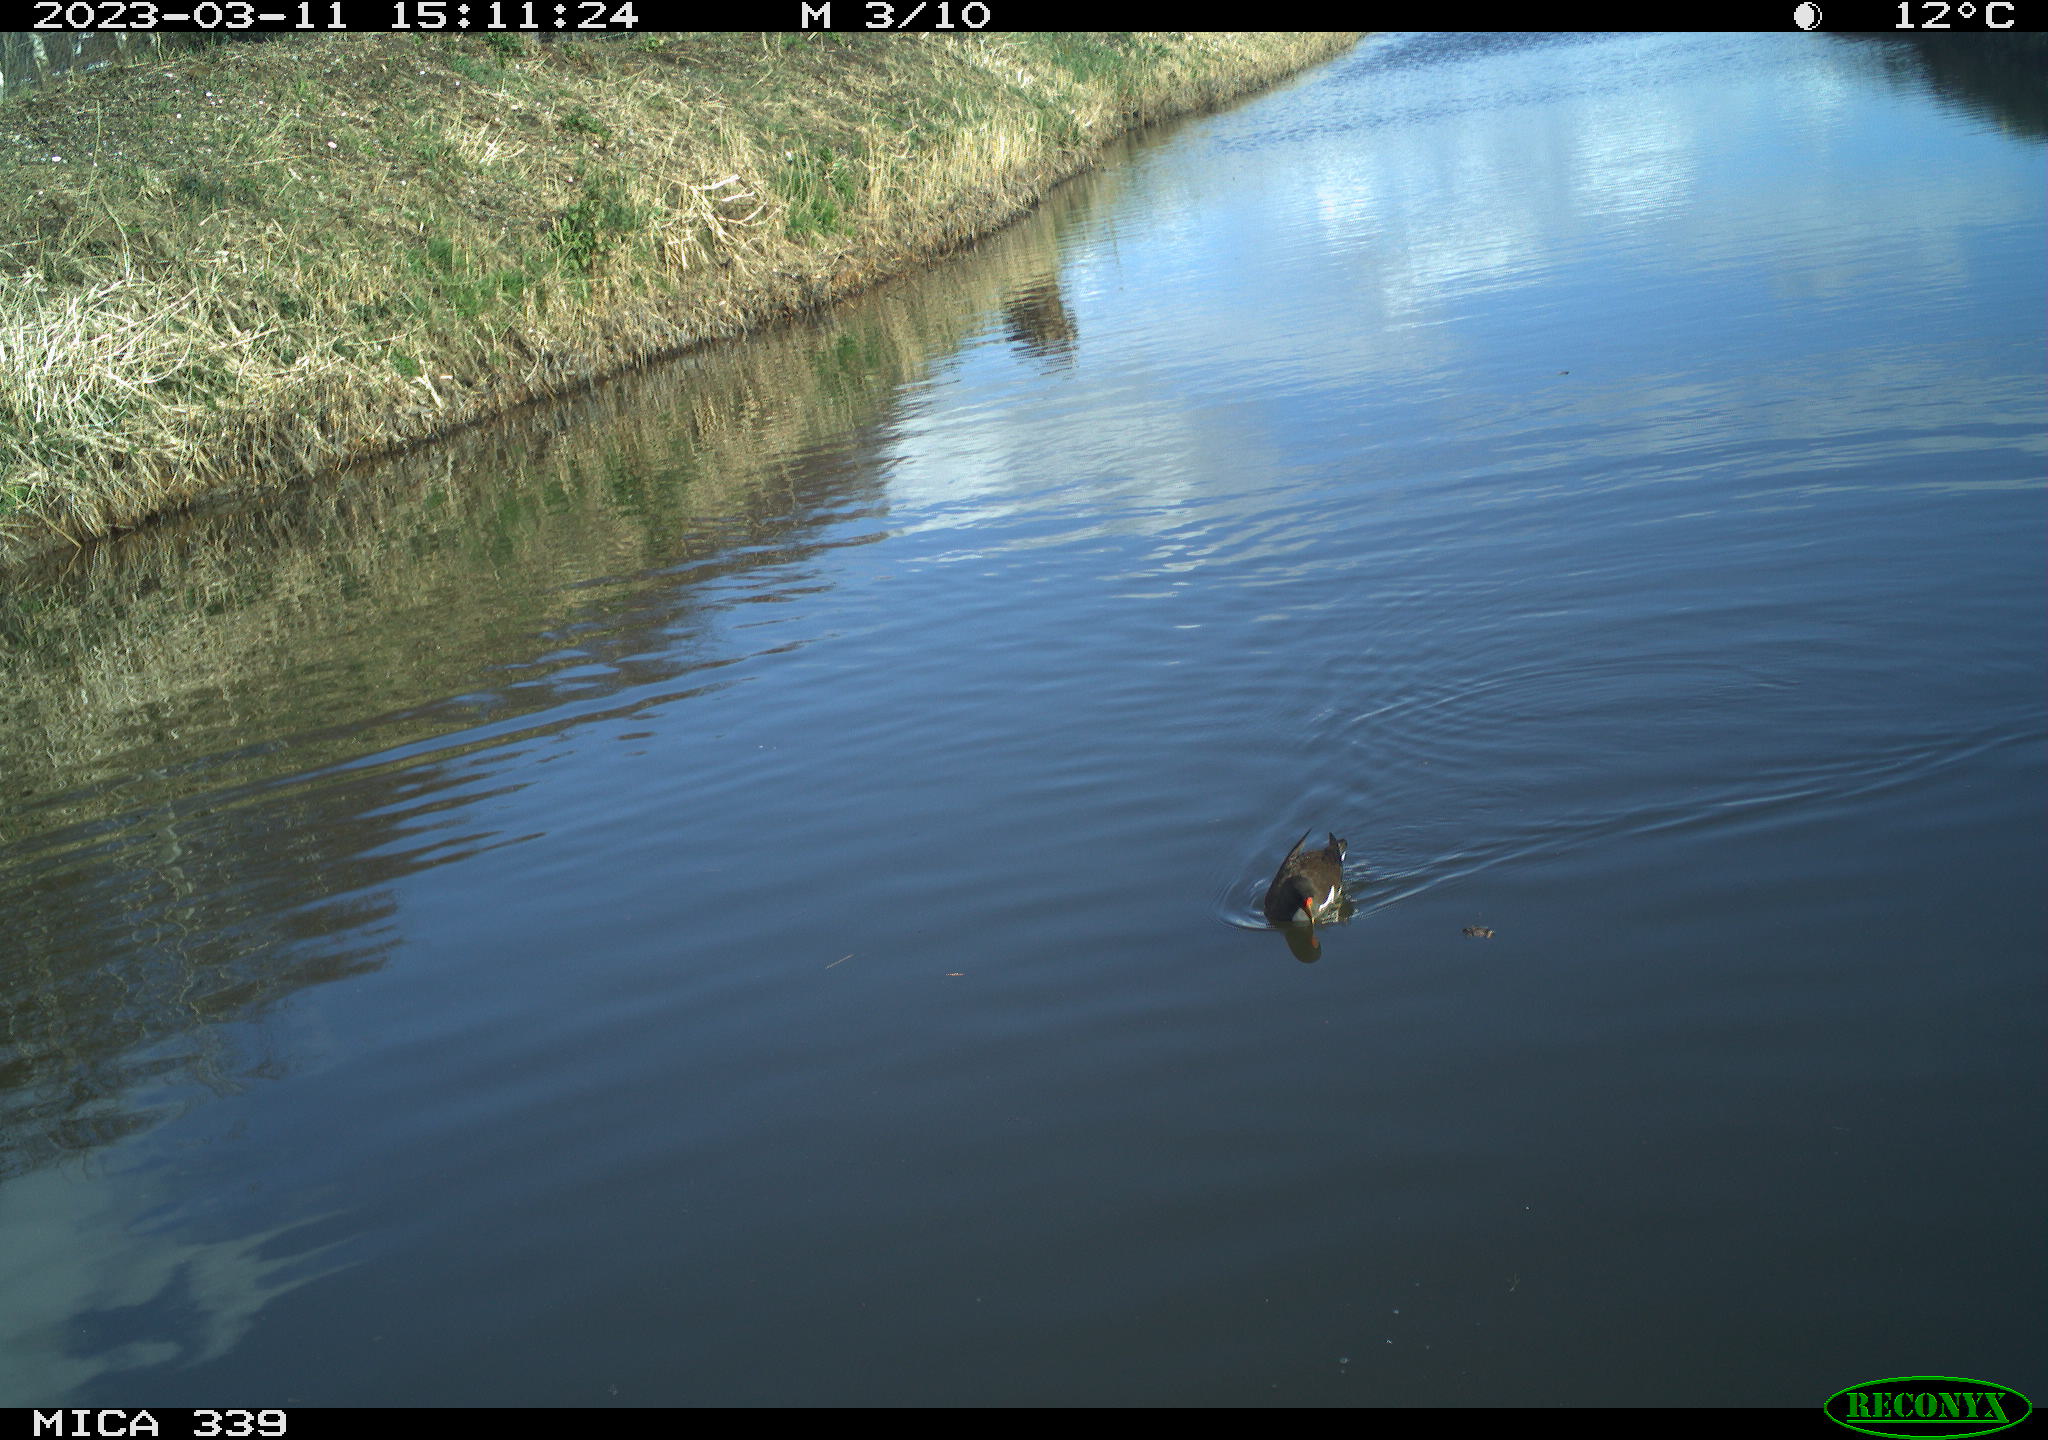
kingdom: Animalia
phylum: Chordata
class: Aves
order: Gruiformes
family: Rallidae
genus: Fulica
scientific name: Fulica atra
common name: Eurasian coot
